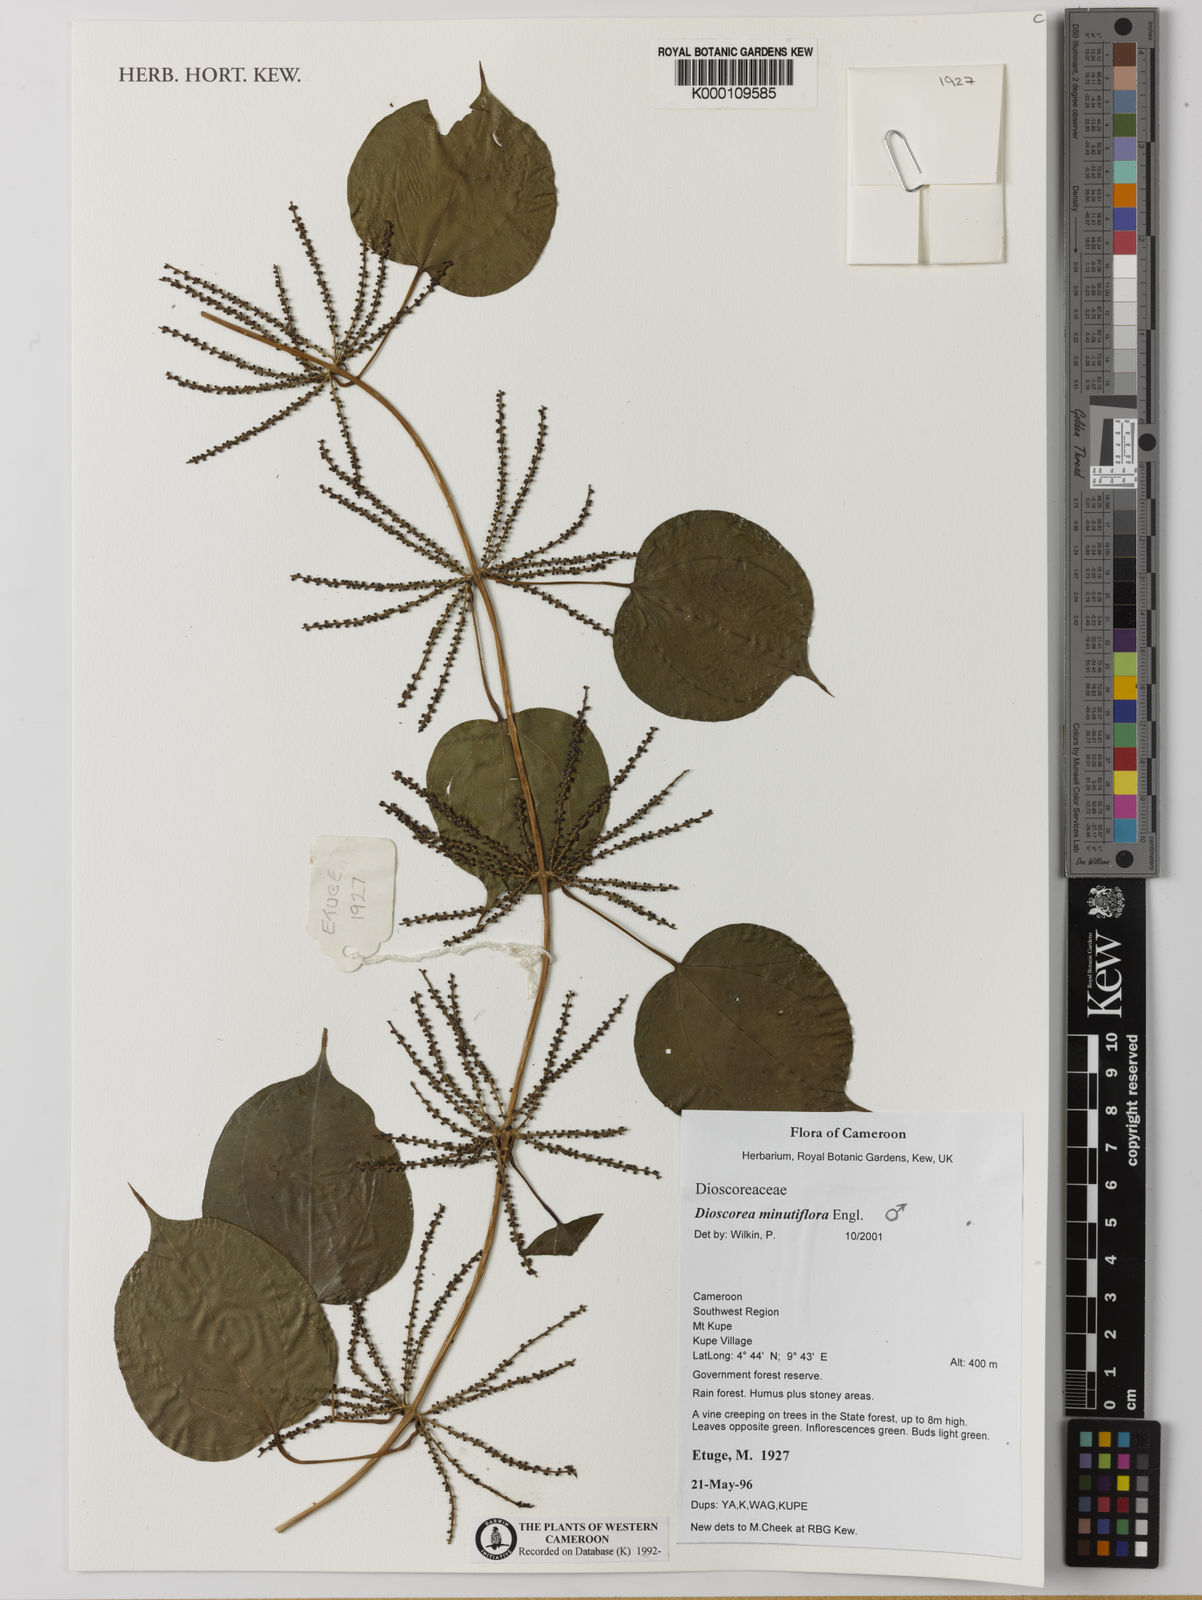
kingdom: Plantae
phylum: Tracheophyta
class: Liliopsida
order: Dioscoreales
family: Dioscoreaceae
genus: Dioscorea
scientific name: Dioscorea minutiflora
